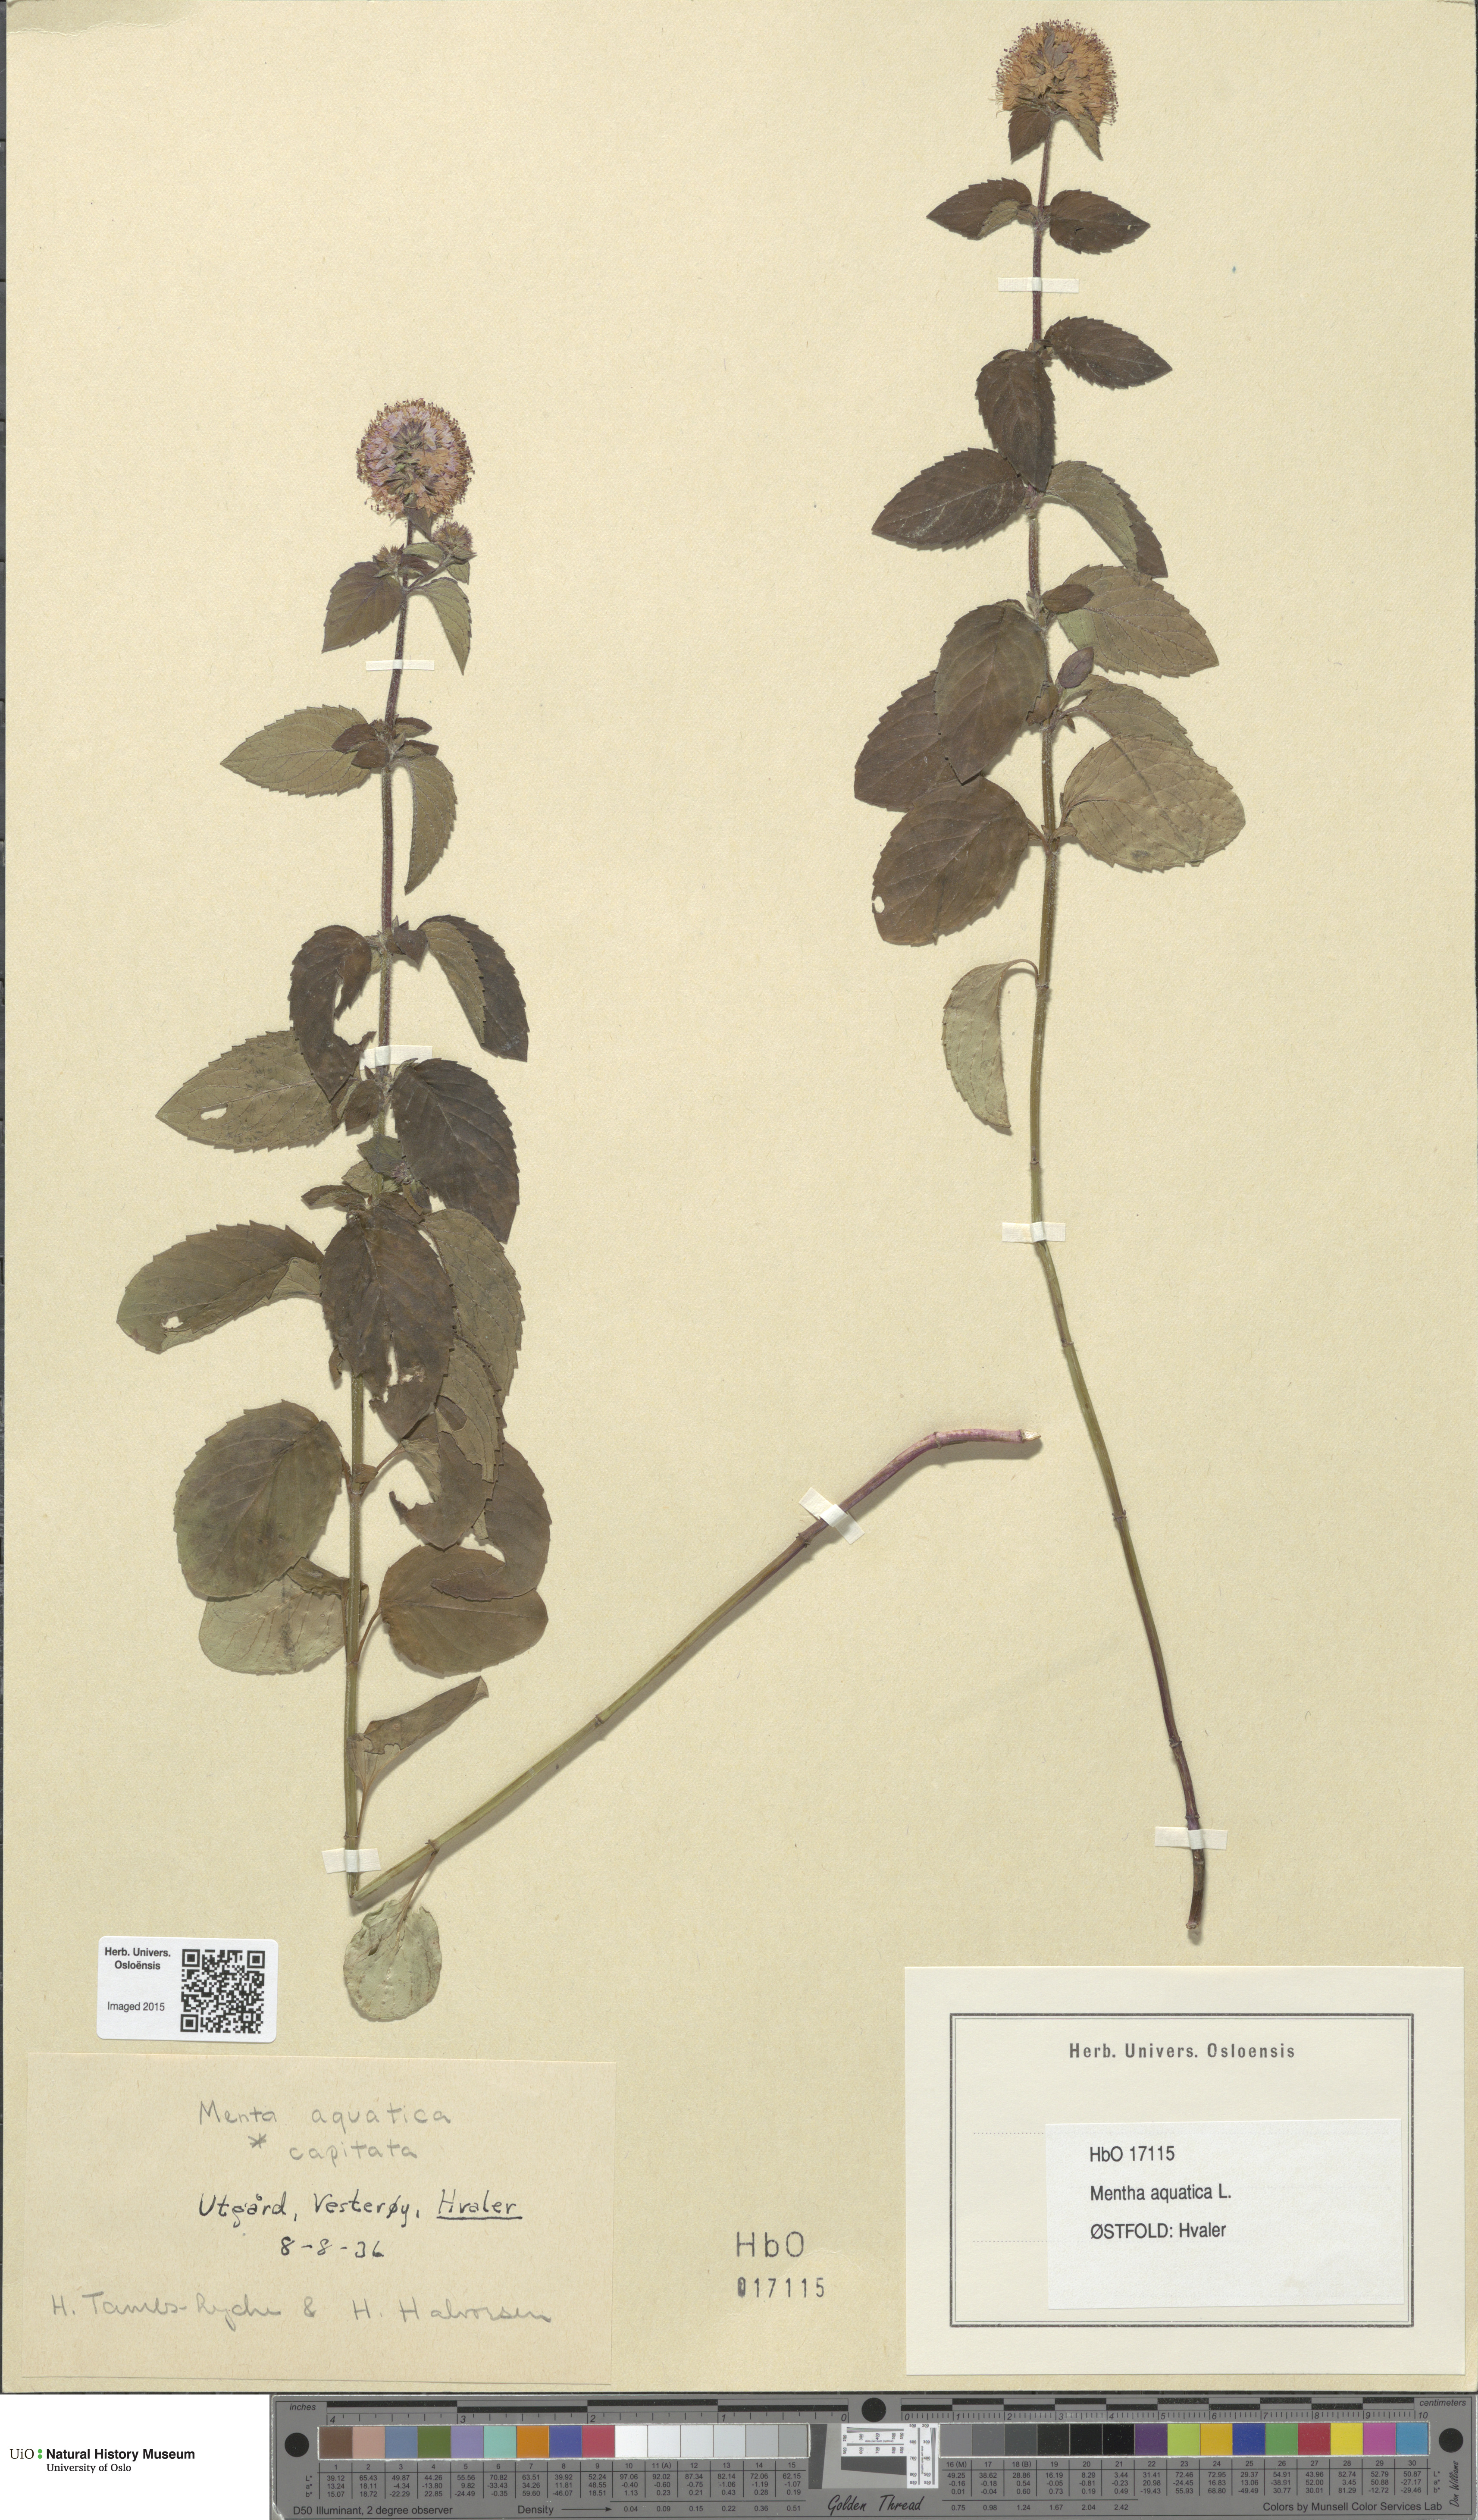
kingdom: Plantae
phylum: Tracheophyta
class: Magnoliopsida
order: Lamiales
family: Lamiaceae
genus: Mentha
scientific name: Mentha aquatica
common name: Water mint
